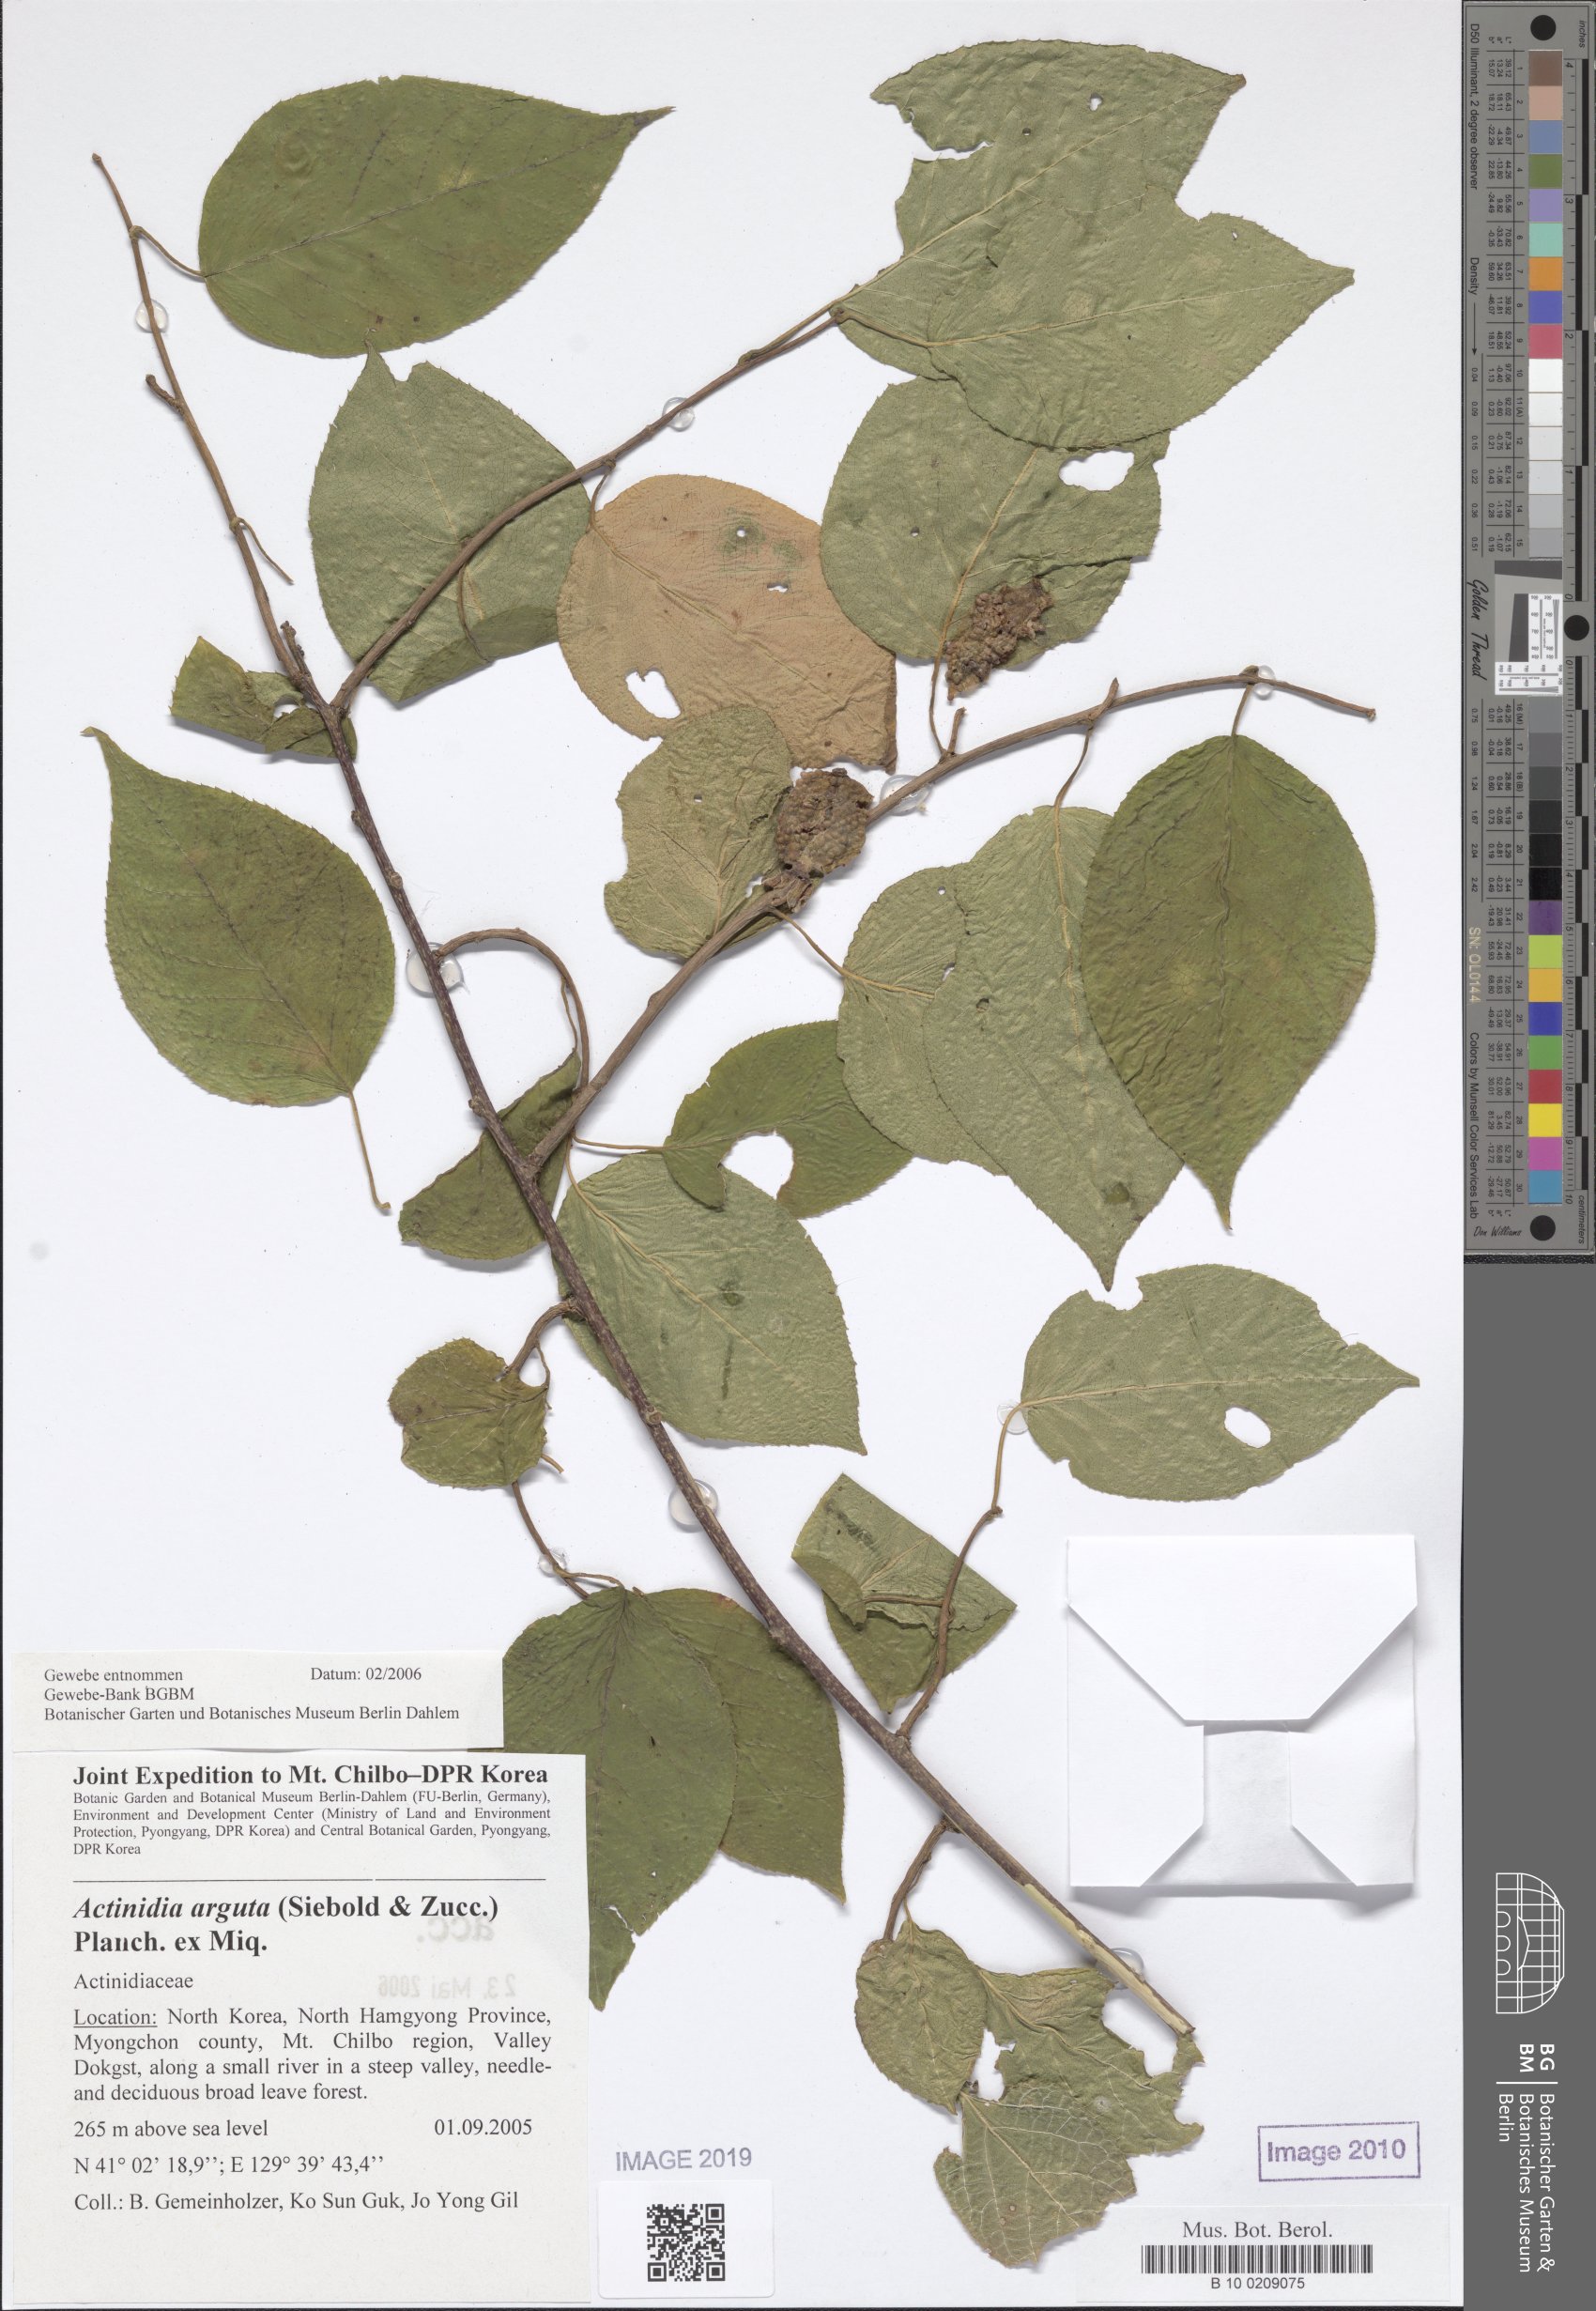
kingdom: Plantae
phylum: Tracheophyta
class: Magnoliopsida
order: Ericales
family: Actinidiaceae
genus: Actinidia
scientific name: Actinidia arguta
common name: Tara vine
